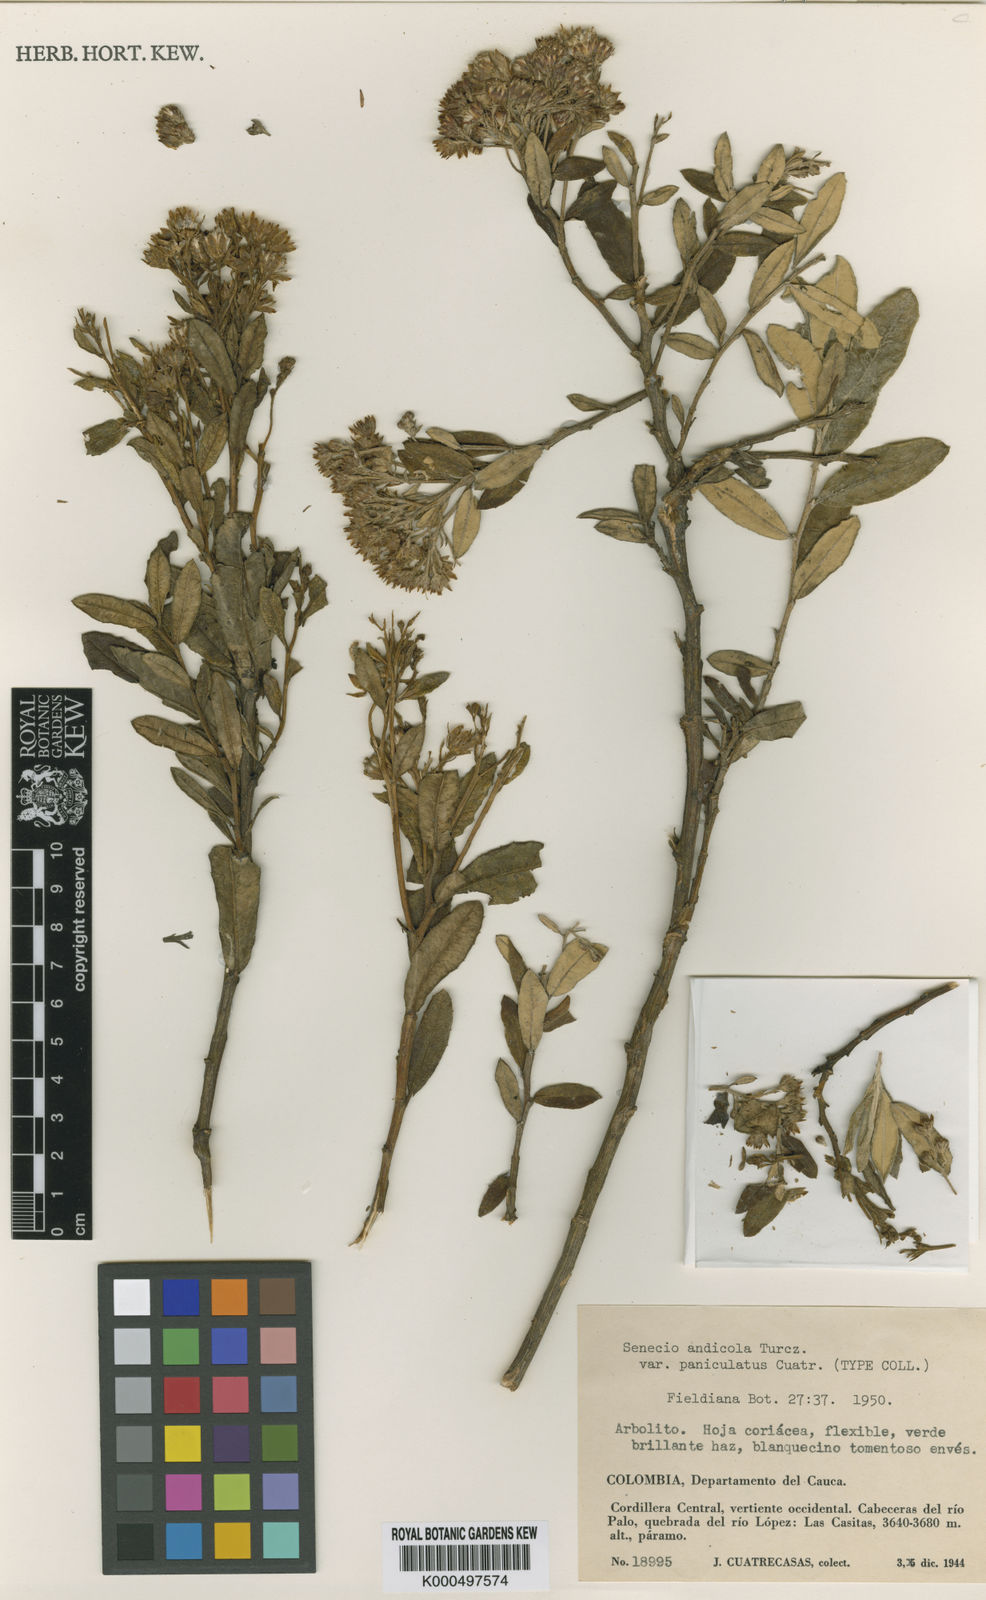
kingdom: Plantae
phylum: Tracheophyta
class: Magnoliopsida
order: Asterales
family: Asteraceae
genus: Monticalia
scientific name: Monticalia andicola
